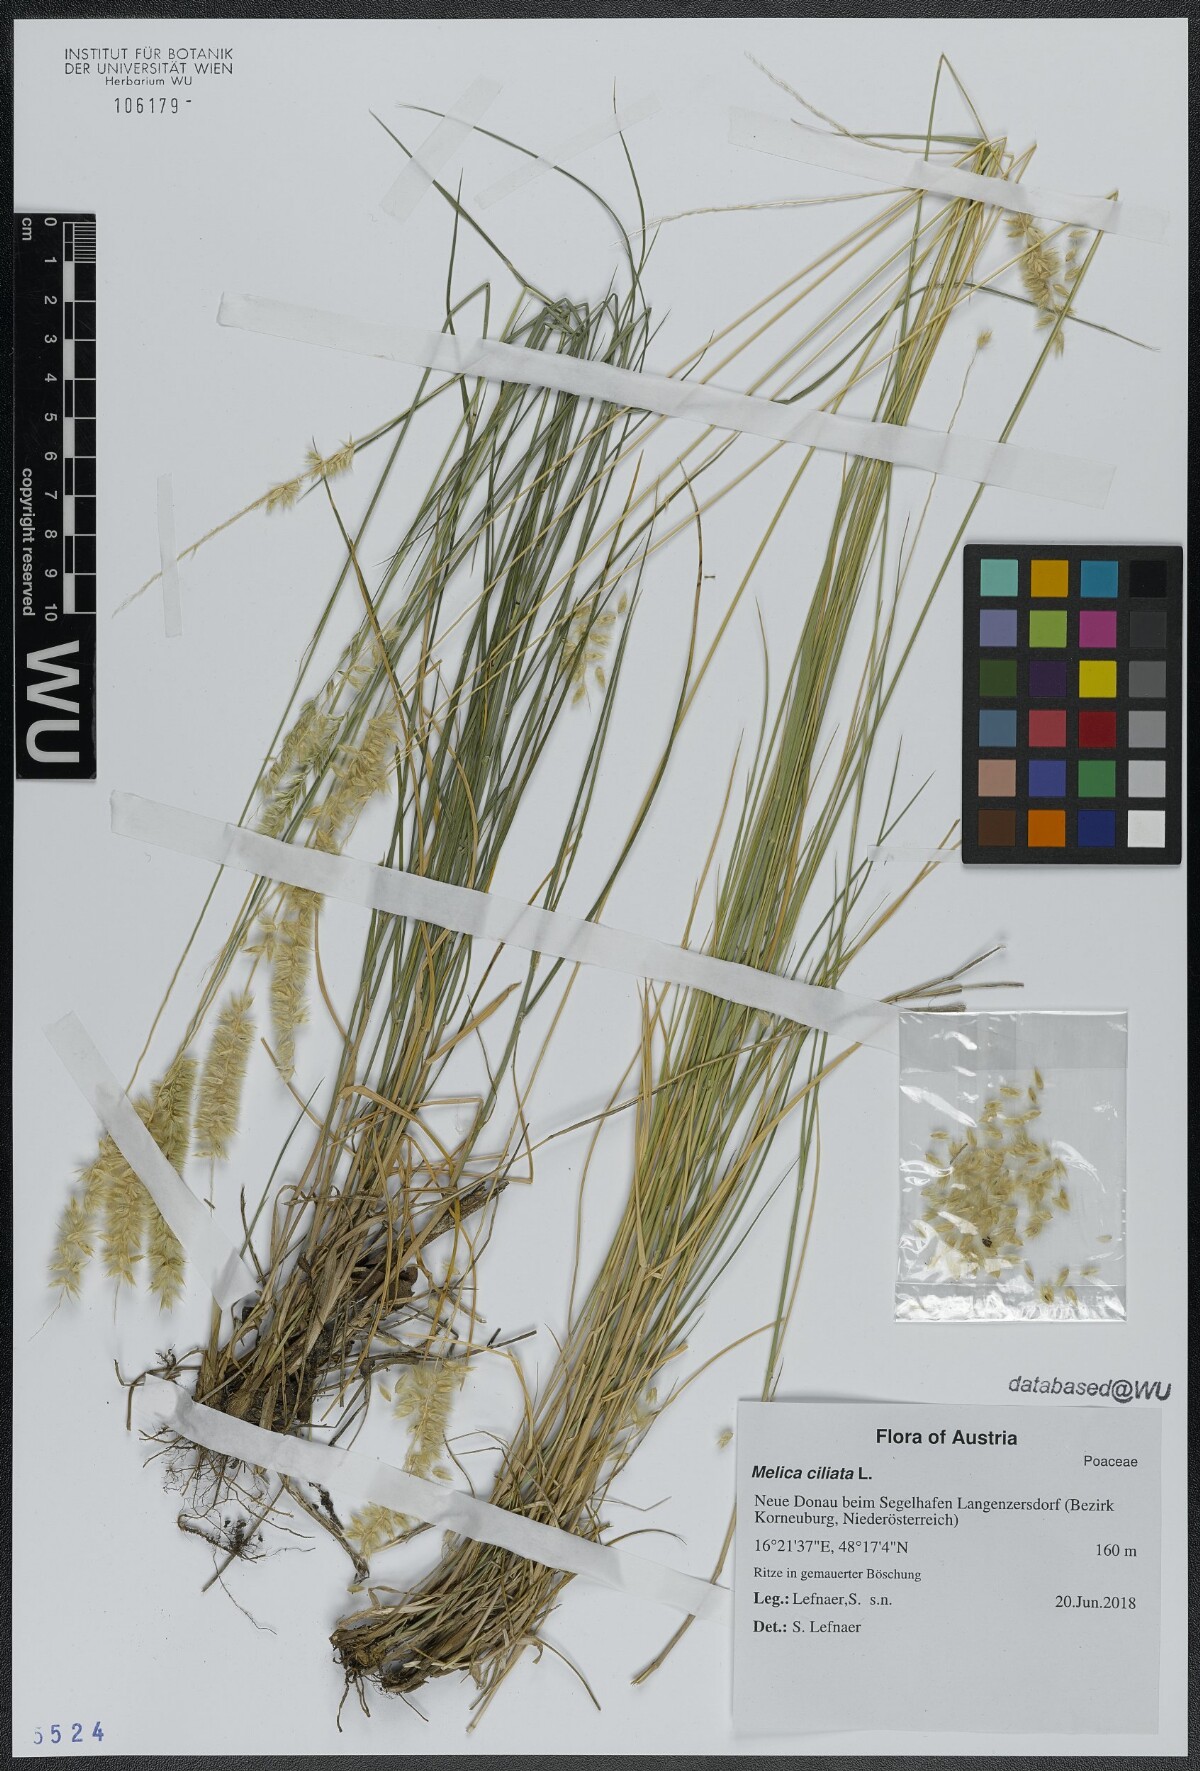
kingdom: Plantae
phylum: Tracheophyta
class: Liliopsida
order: Poales
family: Poaceae
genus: Melica
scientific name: Melica ciliata
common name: Hairy melicgrass
